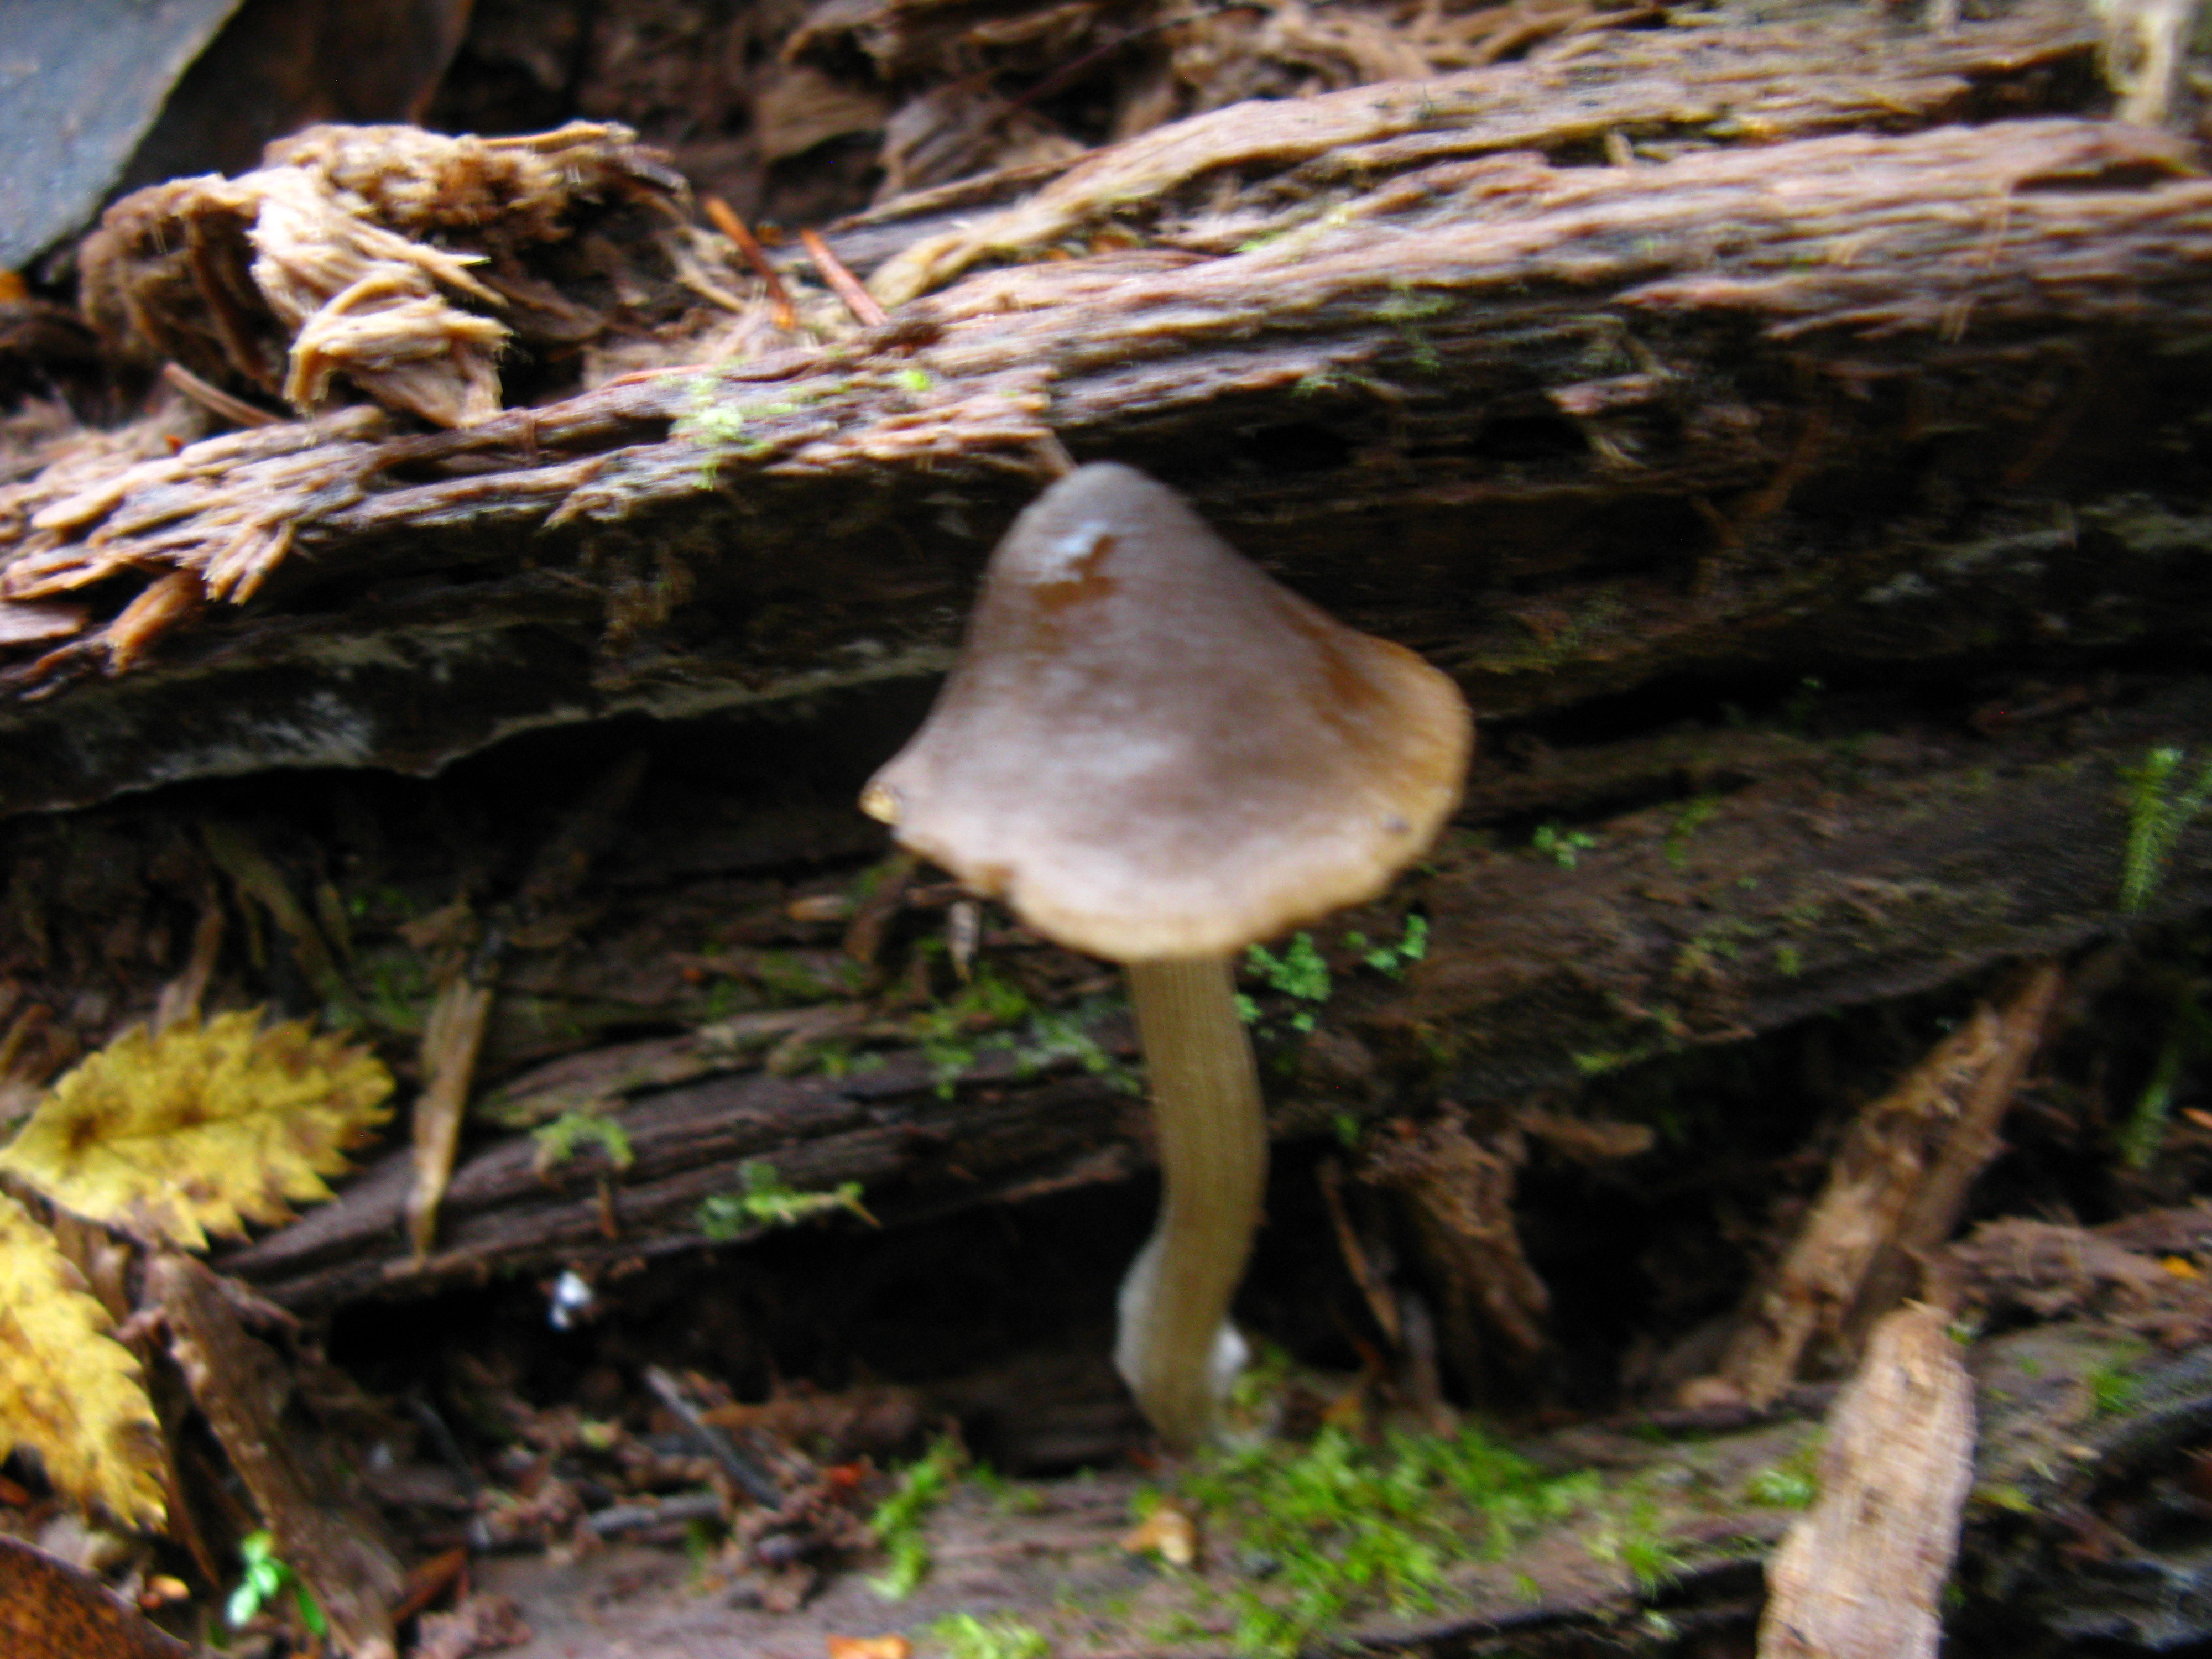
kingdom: Fungi
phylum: Basidiomycota
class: Agaricomycetes
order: Agaricales
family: Entolomataceae
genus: Entoloma
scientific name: Entoloma conferendum
